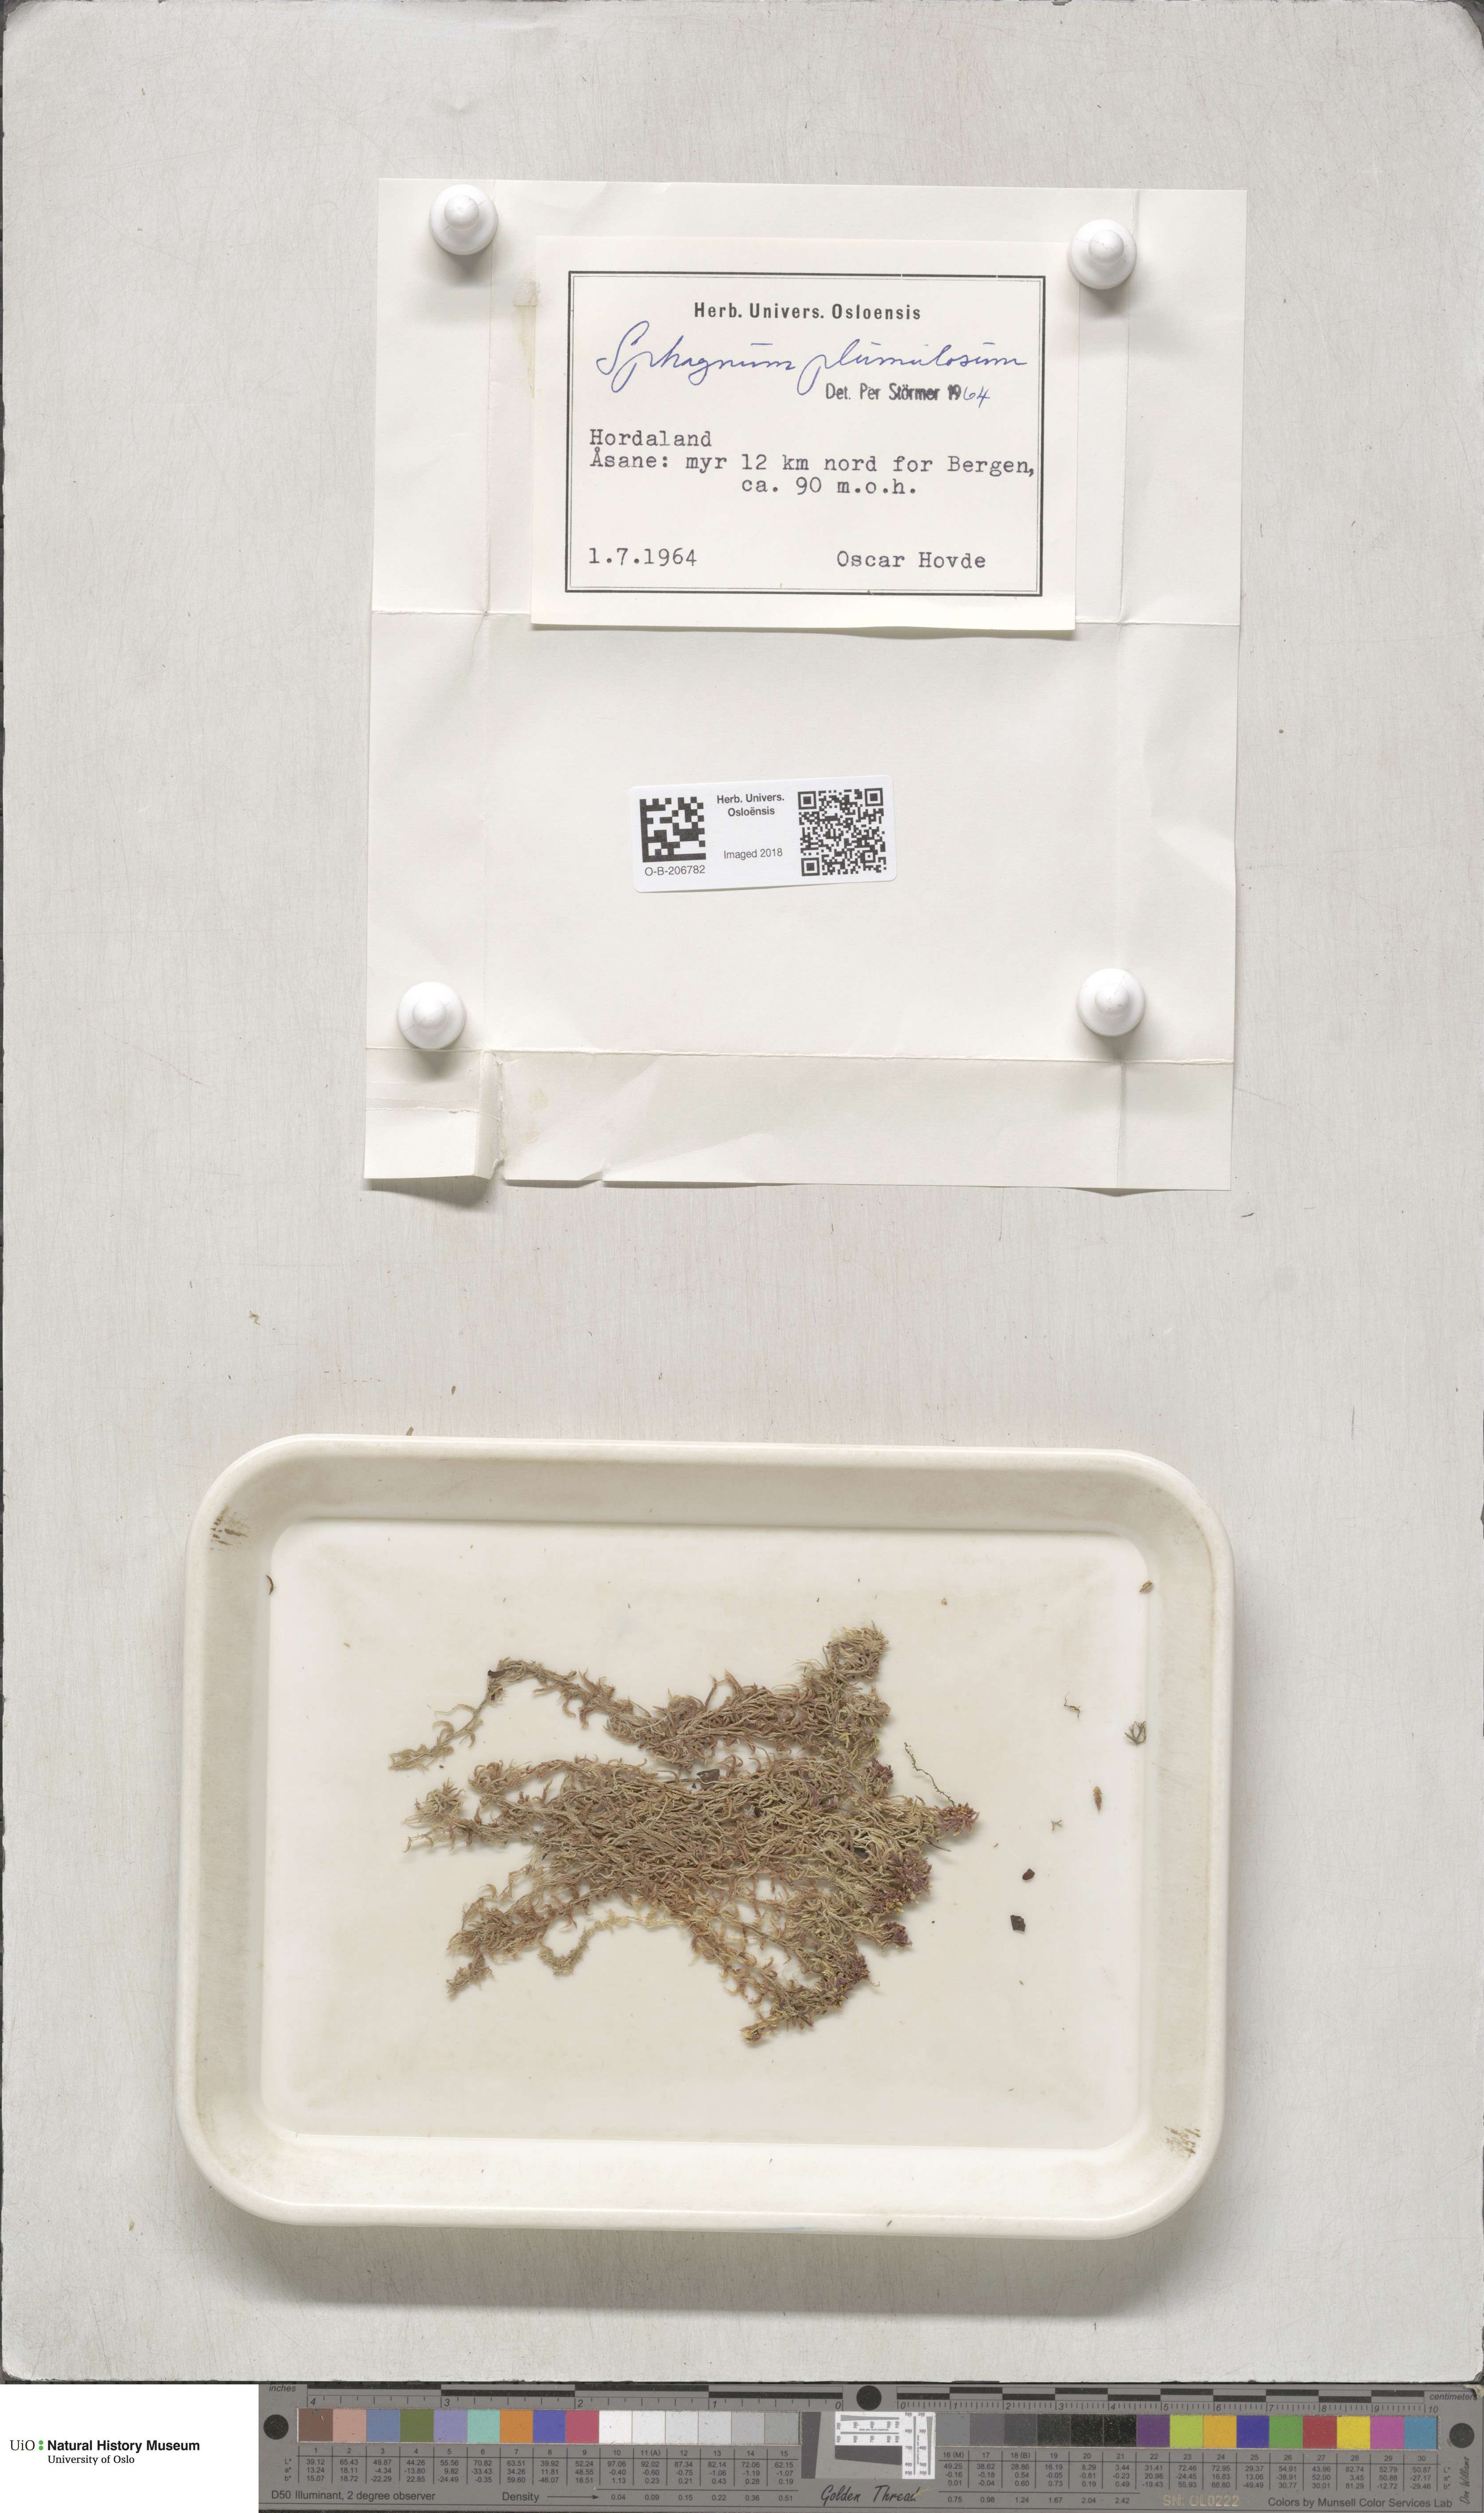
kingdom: Plantae
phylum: Bryophyta
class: Sphagnopsida
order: Sphagnales
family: Sphagnaceae
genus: Sphagnum
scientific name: Sphagnum subnitens
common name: Lustrous bog-moss
